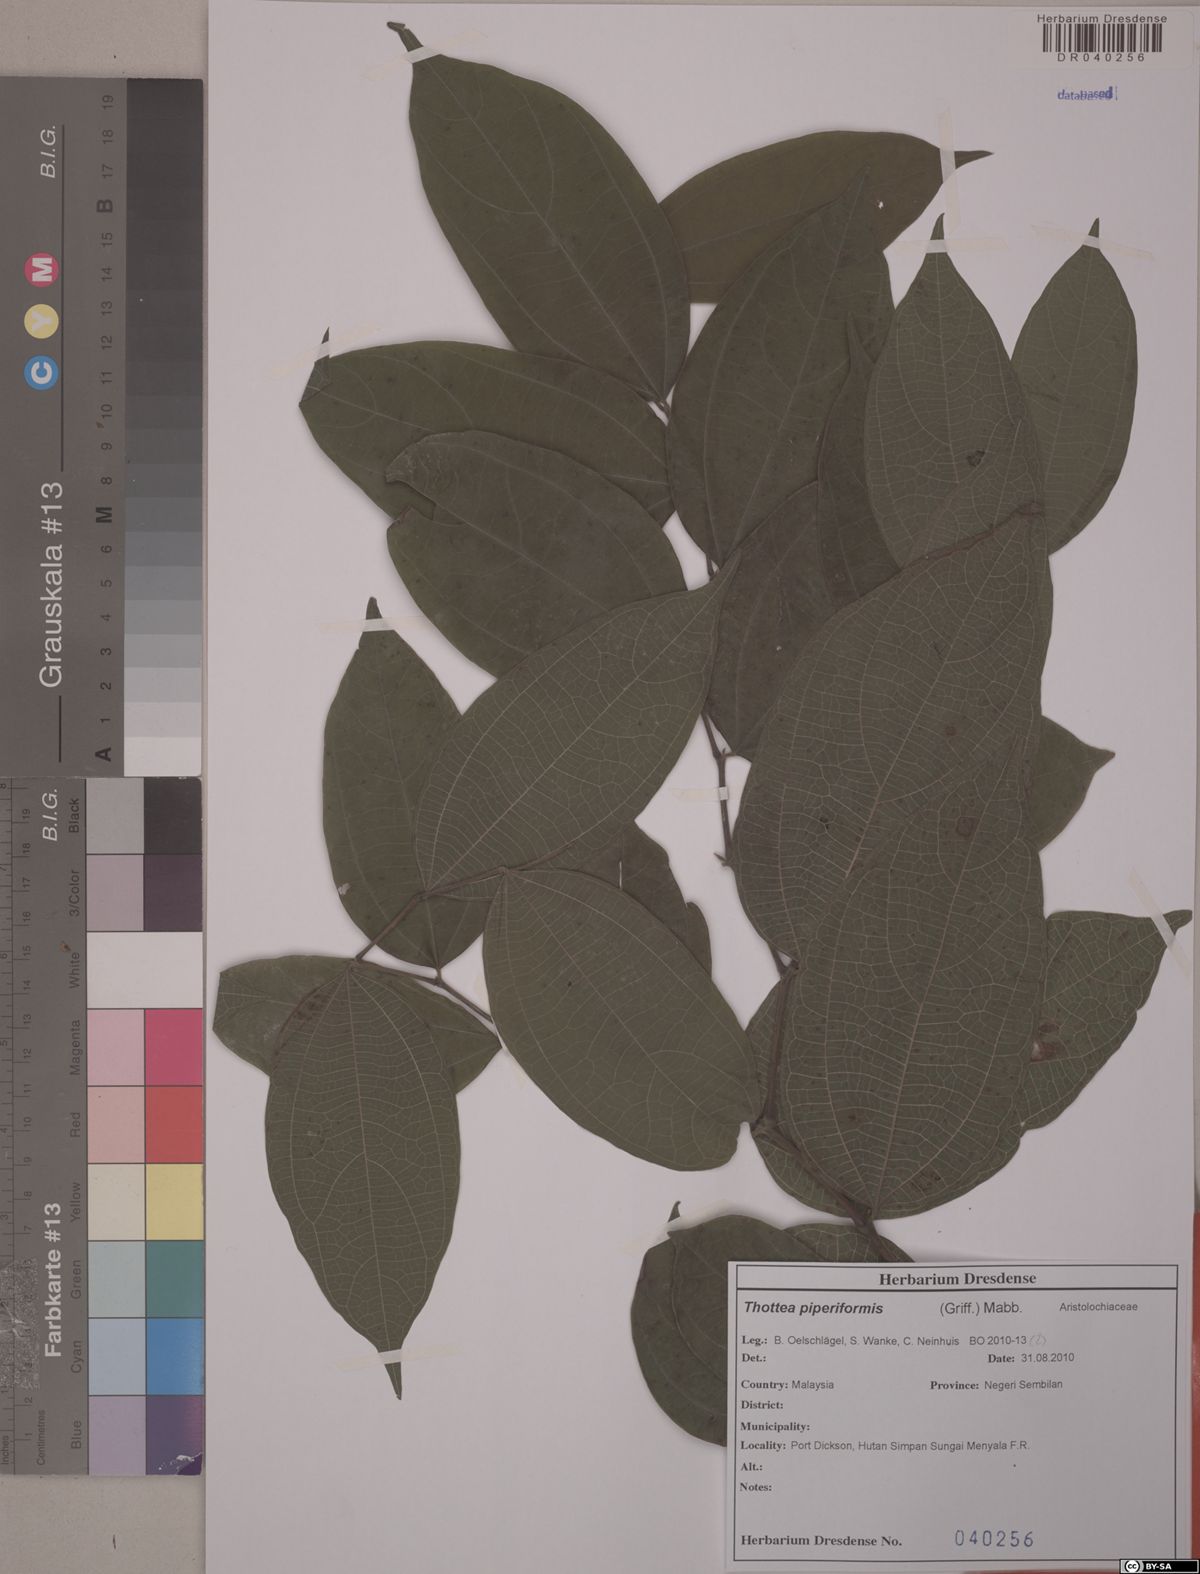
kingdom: Plantae
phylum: Tracheophyta
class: Magnoliopsida
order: Piperales
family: Aristolochiaceae
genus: Thottea
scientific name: Thottea piperiformis
